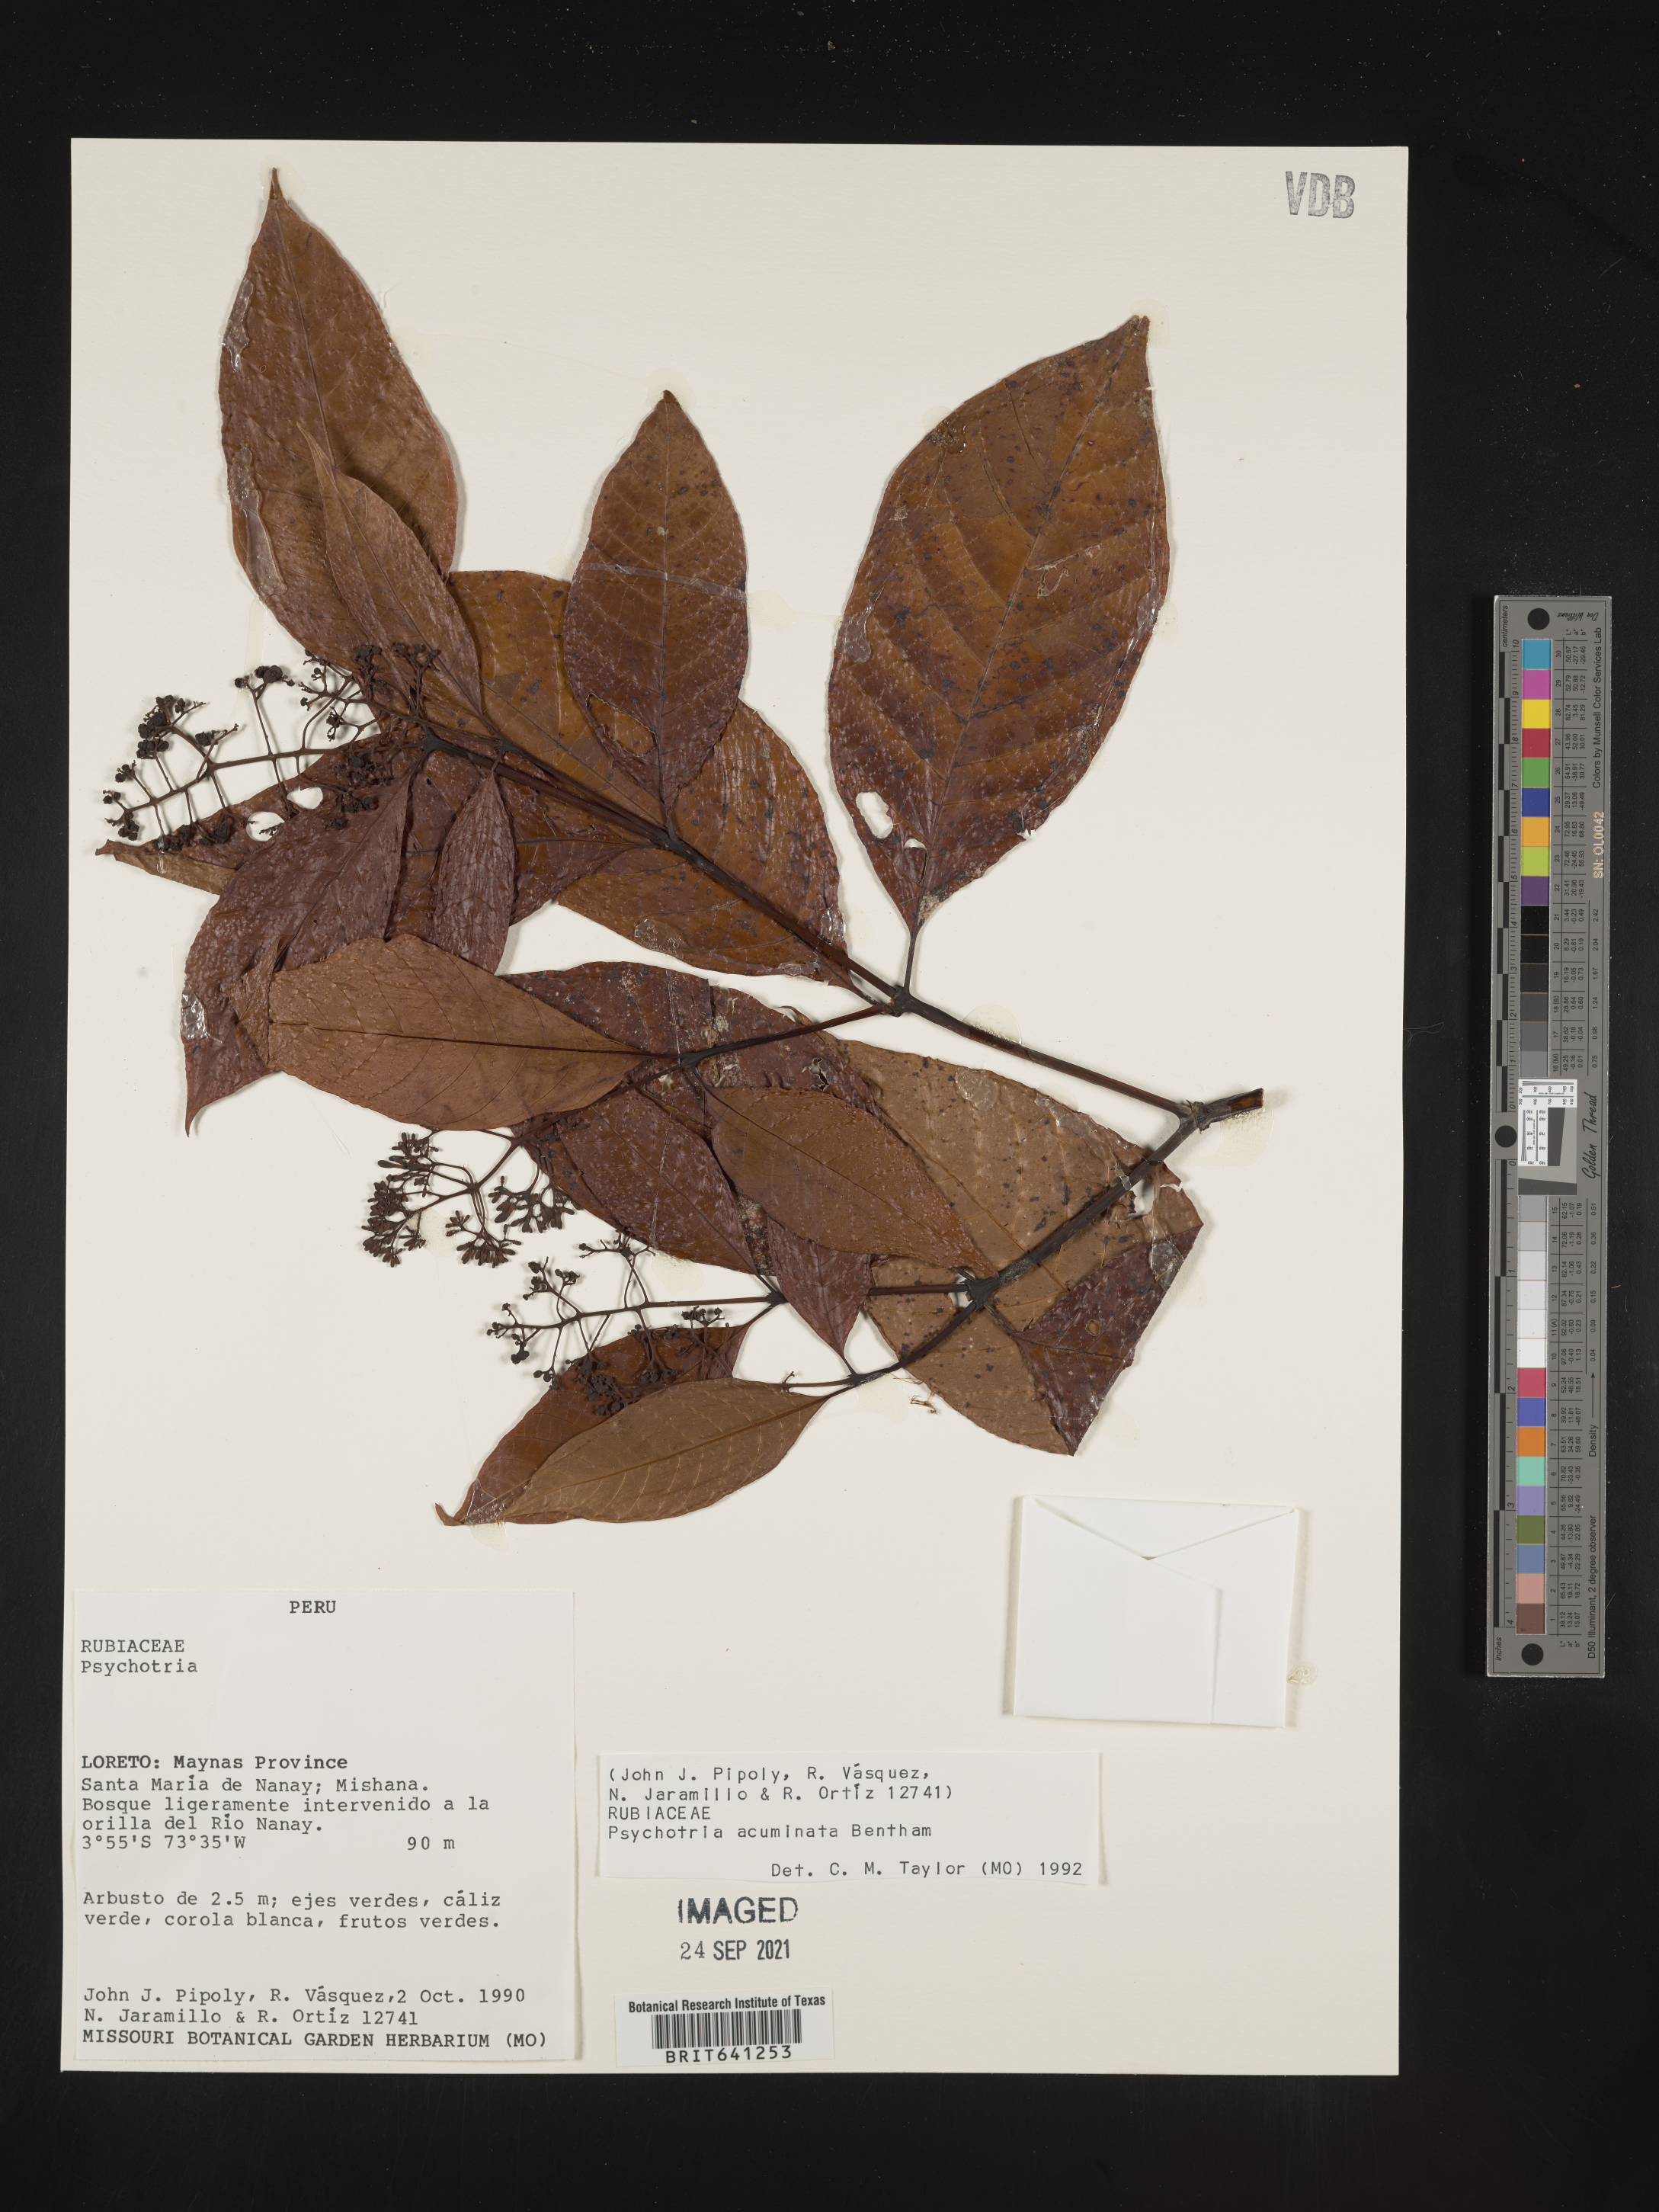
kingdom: Plantae
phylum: Tracheophyta
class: Magnoliopsida
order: Gentianales
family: Rubiaceae
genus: Psychotria
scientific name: Psychotria
